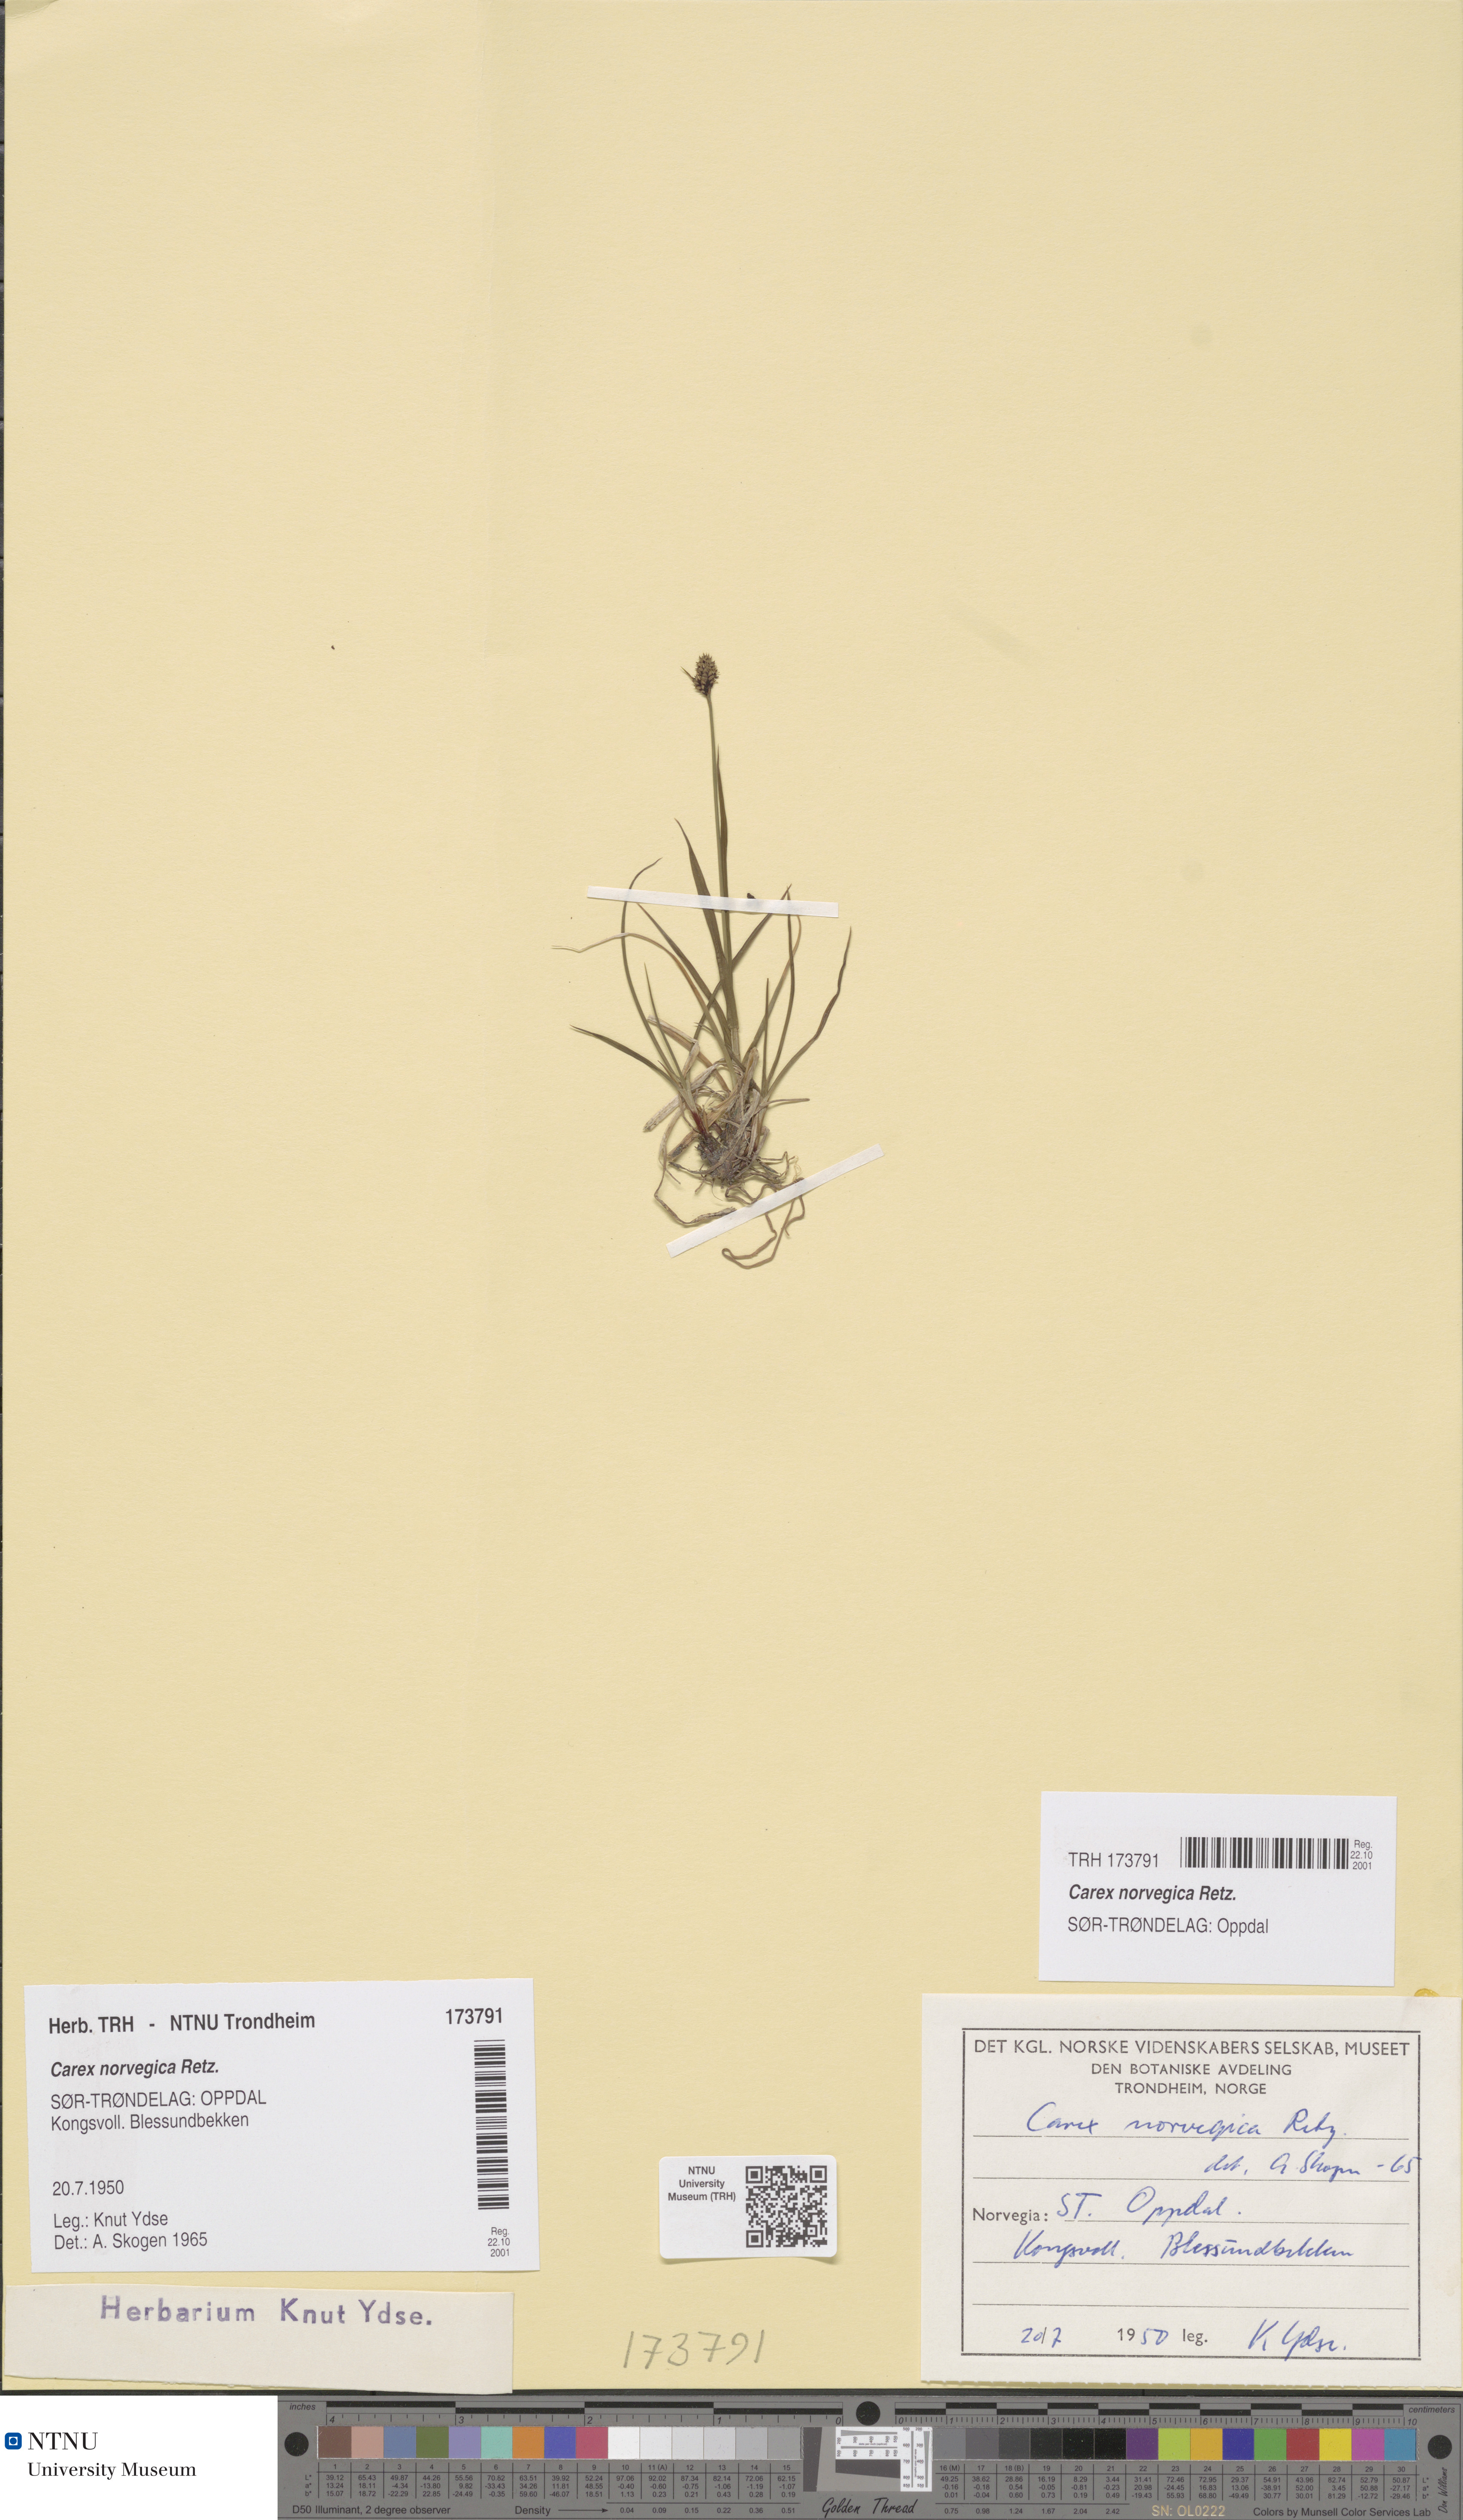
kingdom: Plantae
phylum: Tracheophyta
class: Liliopsida
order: Poales
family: Cyperaceae
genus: Carex
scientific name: Carex norvegica
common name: Close-headed alpine-sedge
